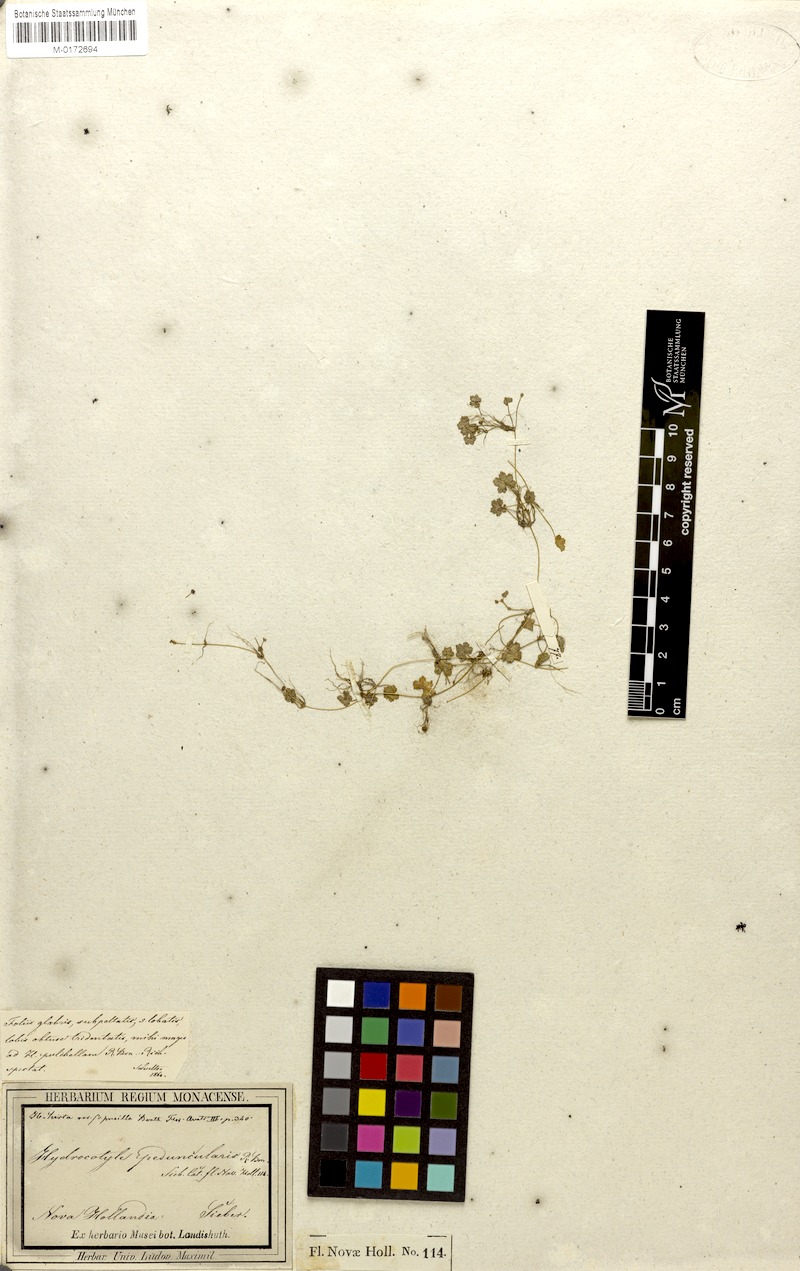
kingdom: Plantae
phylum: Tracheophyta
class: Magnoliopsida
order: Apiales
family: Araliaceae
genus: Hydrocotyle
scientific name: Hydrocotyle peduncularis
